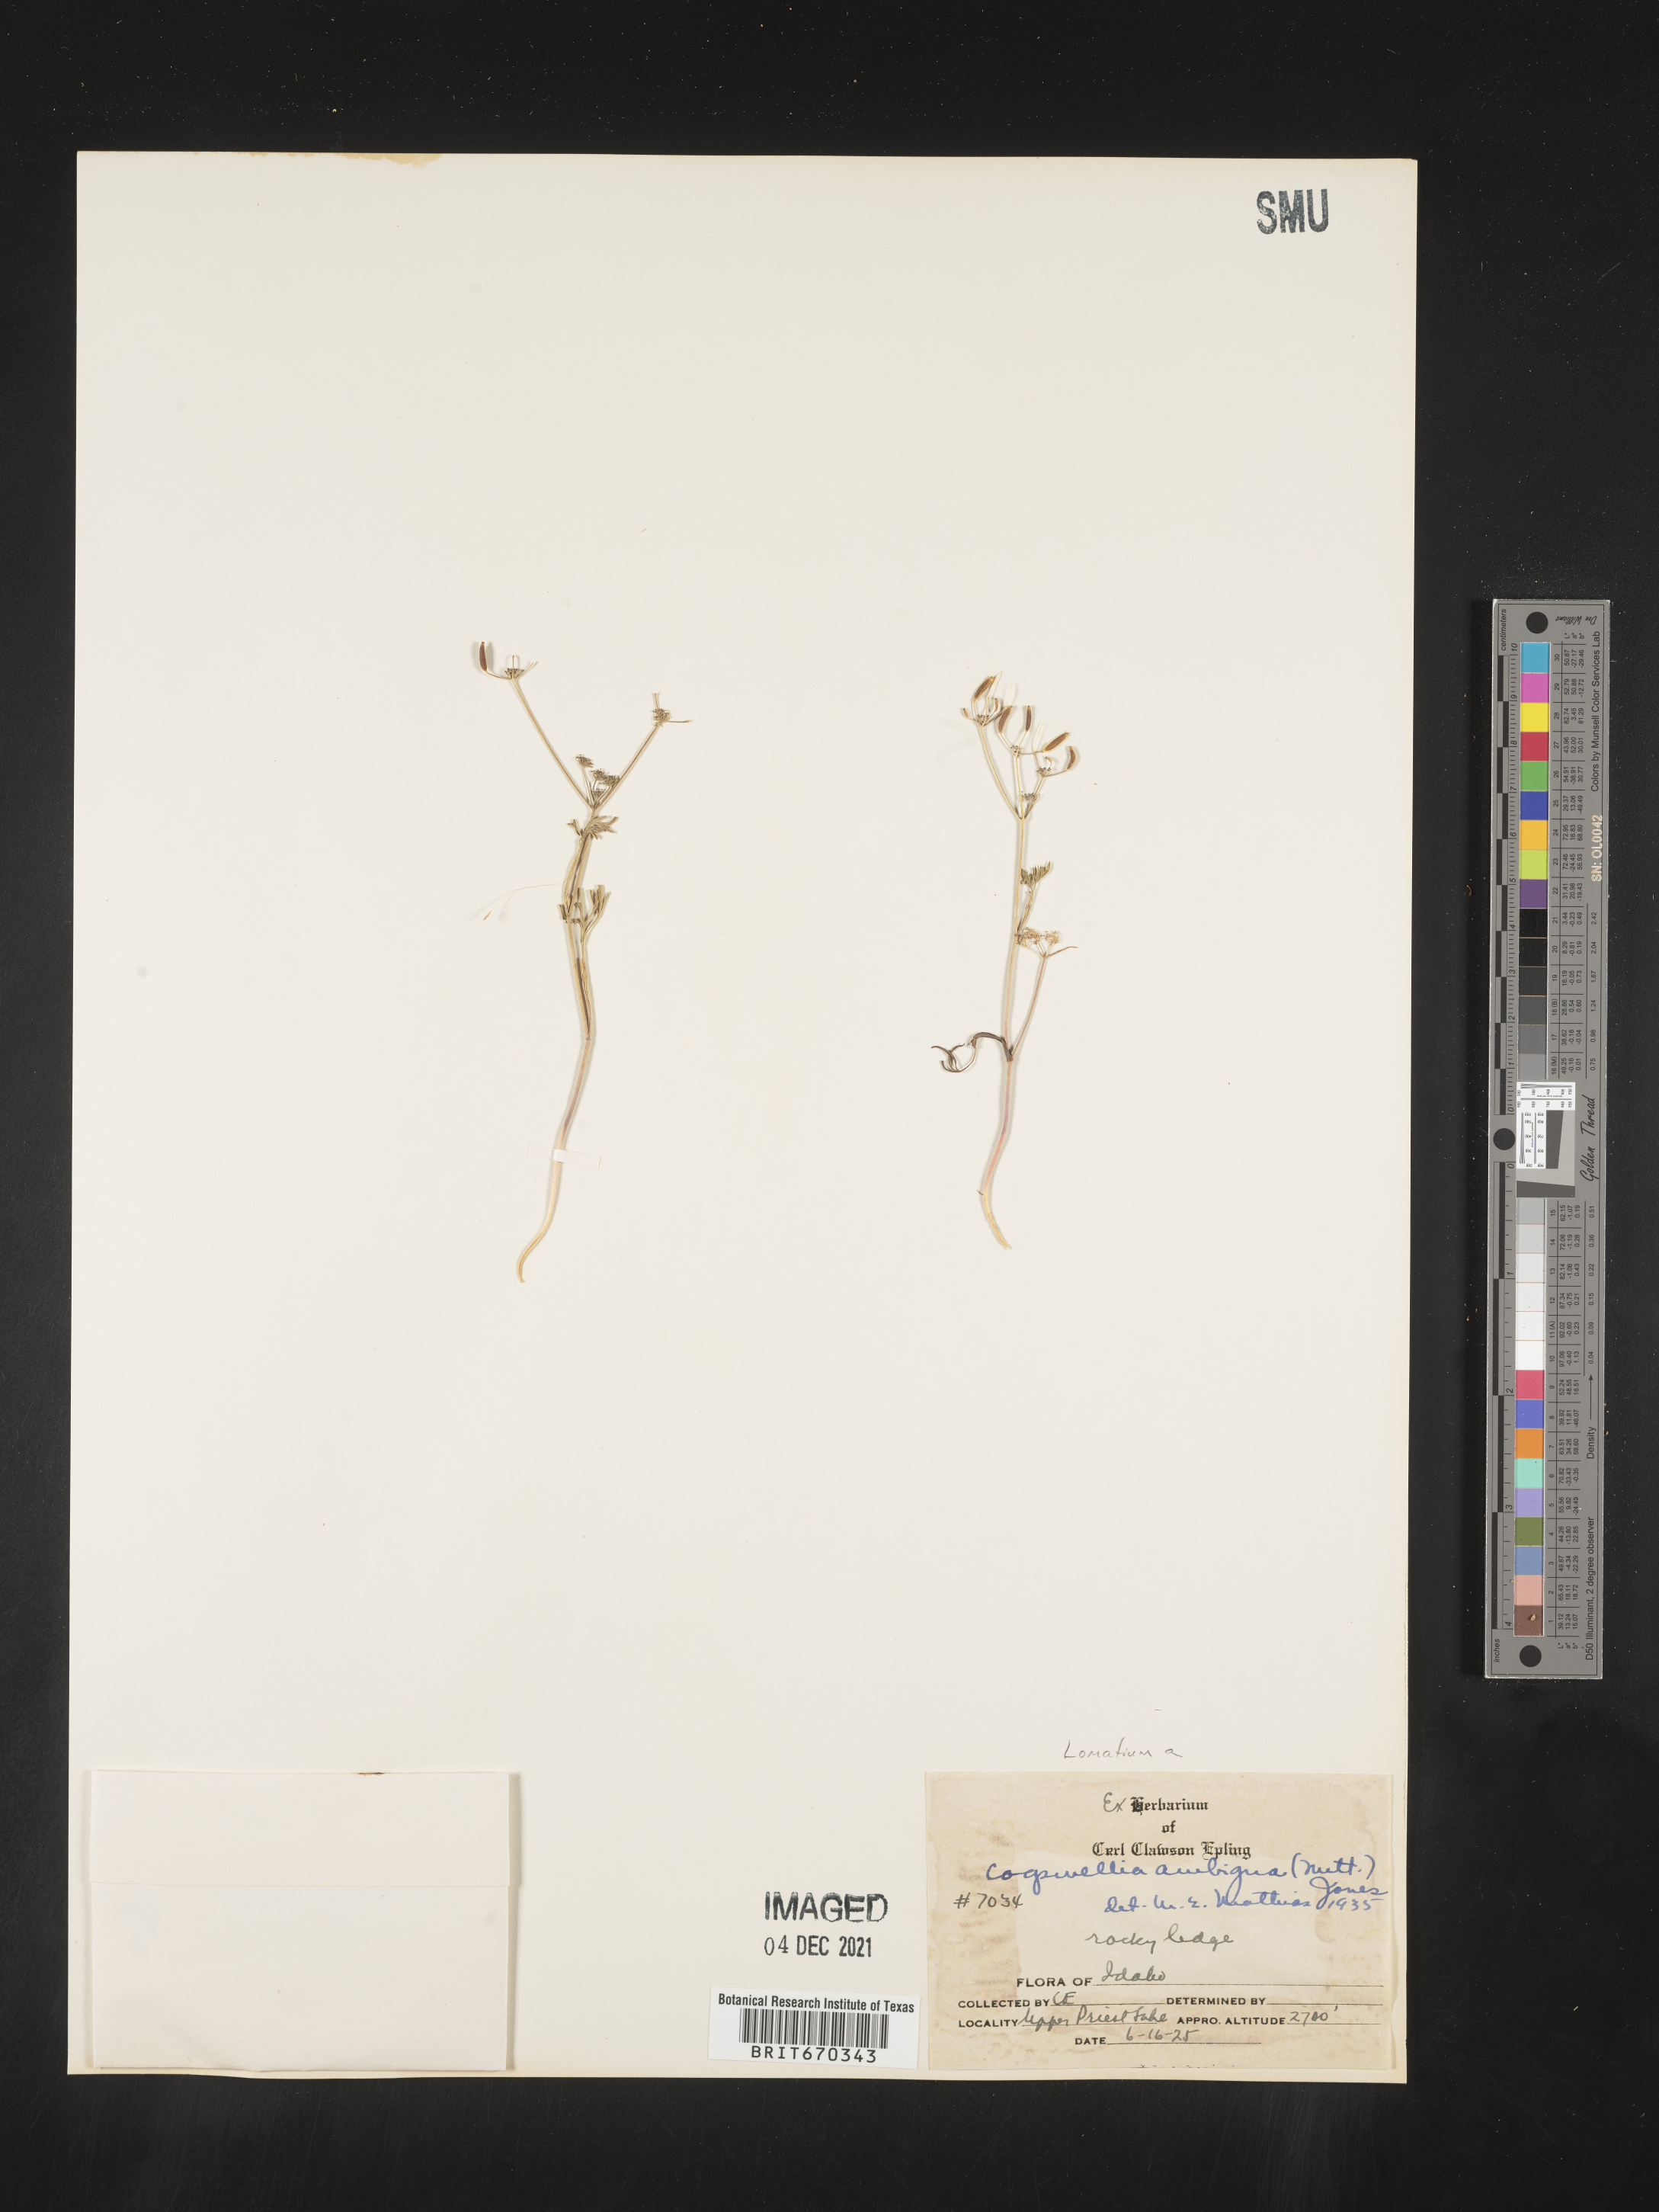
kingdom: Plantae
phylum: Tracheophyta
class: Magnoliopsida
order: Apiales
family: Apiaceae
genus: Lomatium
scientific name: Lomatium ambiguum
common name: Lacy lomatium
